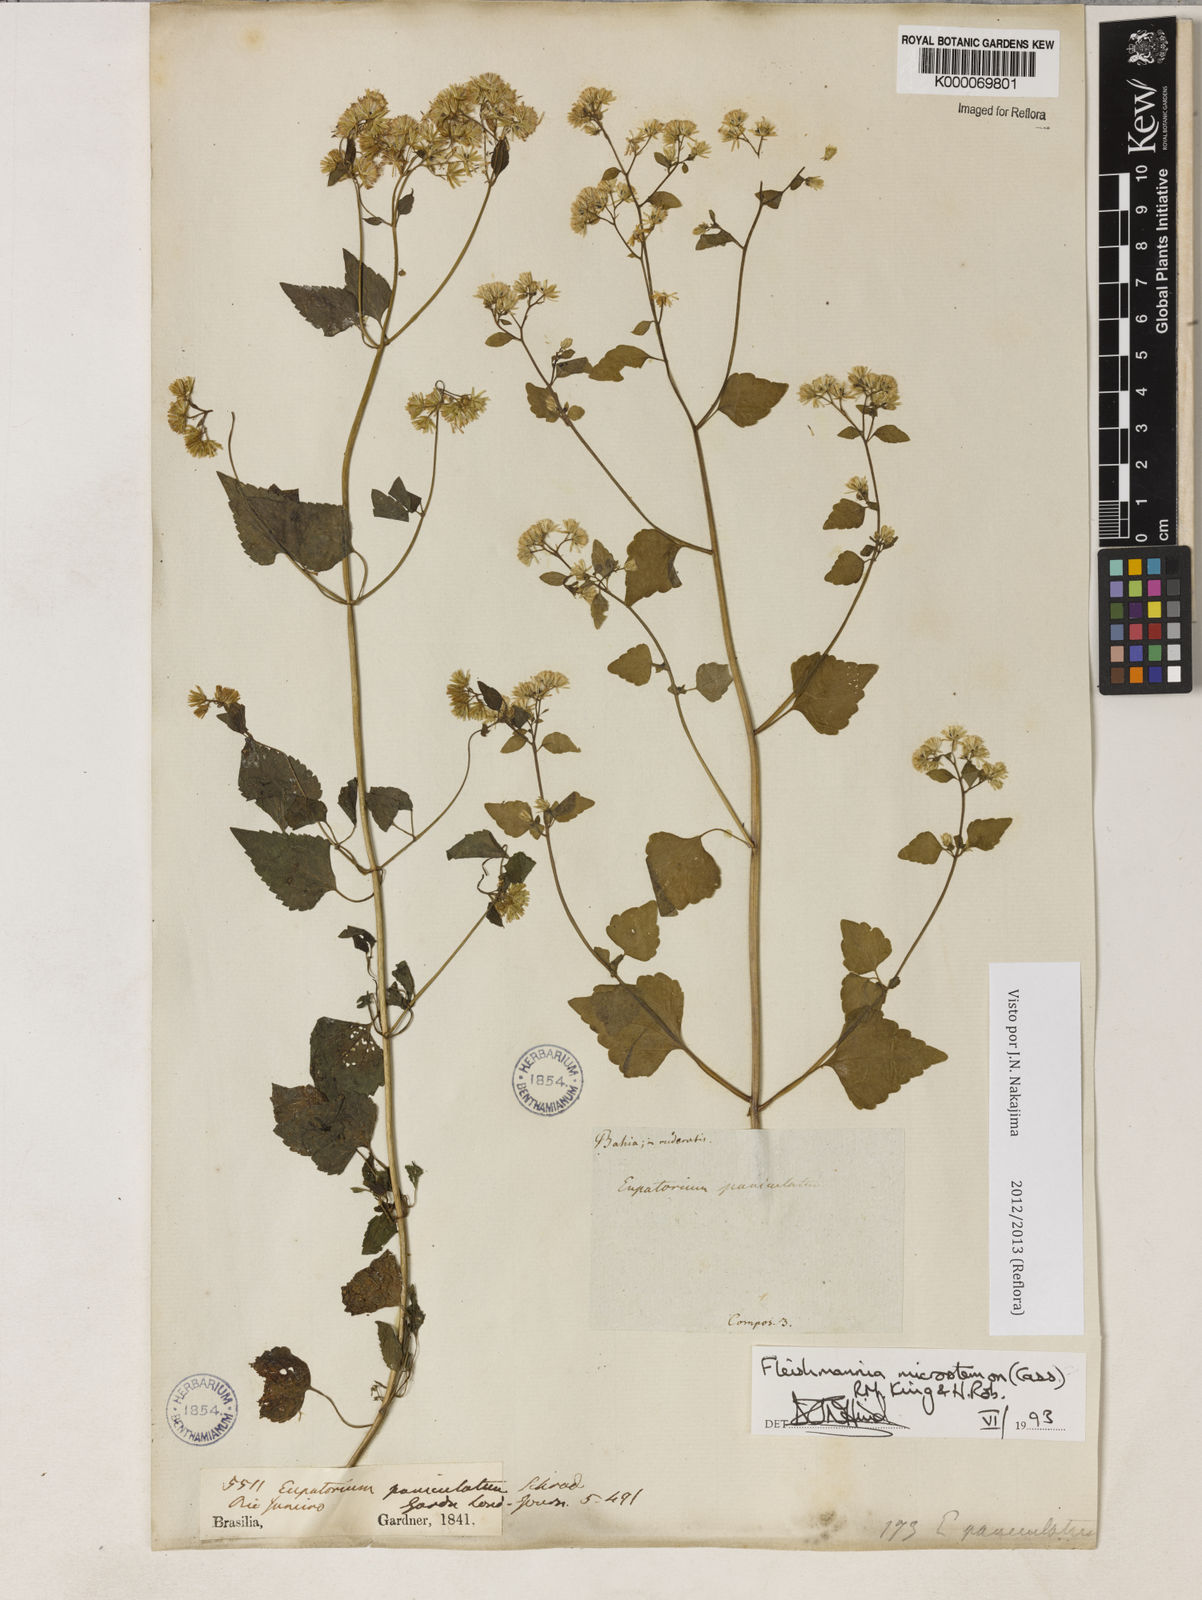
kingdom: Plantae
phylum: Tracheophyta
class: Magnoliopsida
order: Asterales
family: Asteraceae
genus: Fleischmannia
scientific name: Fleischmannia microstemon
